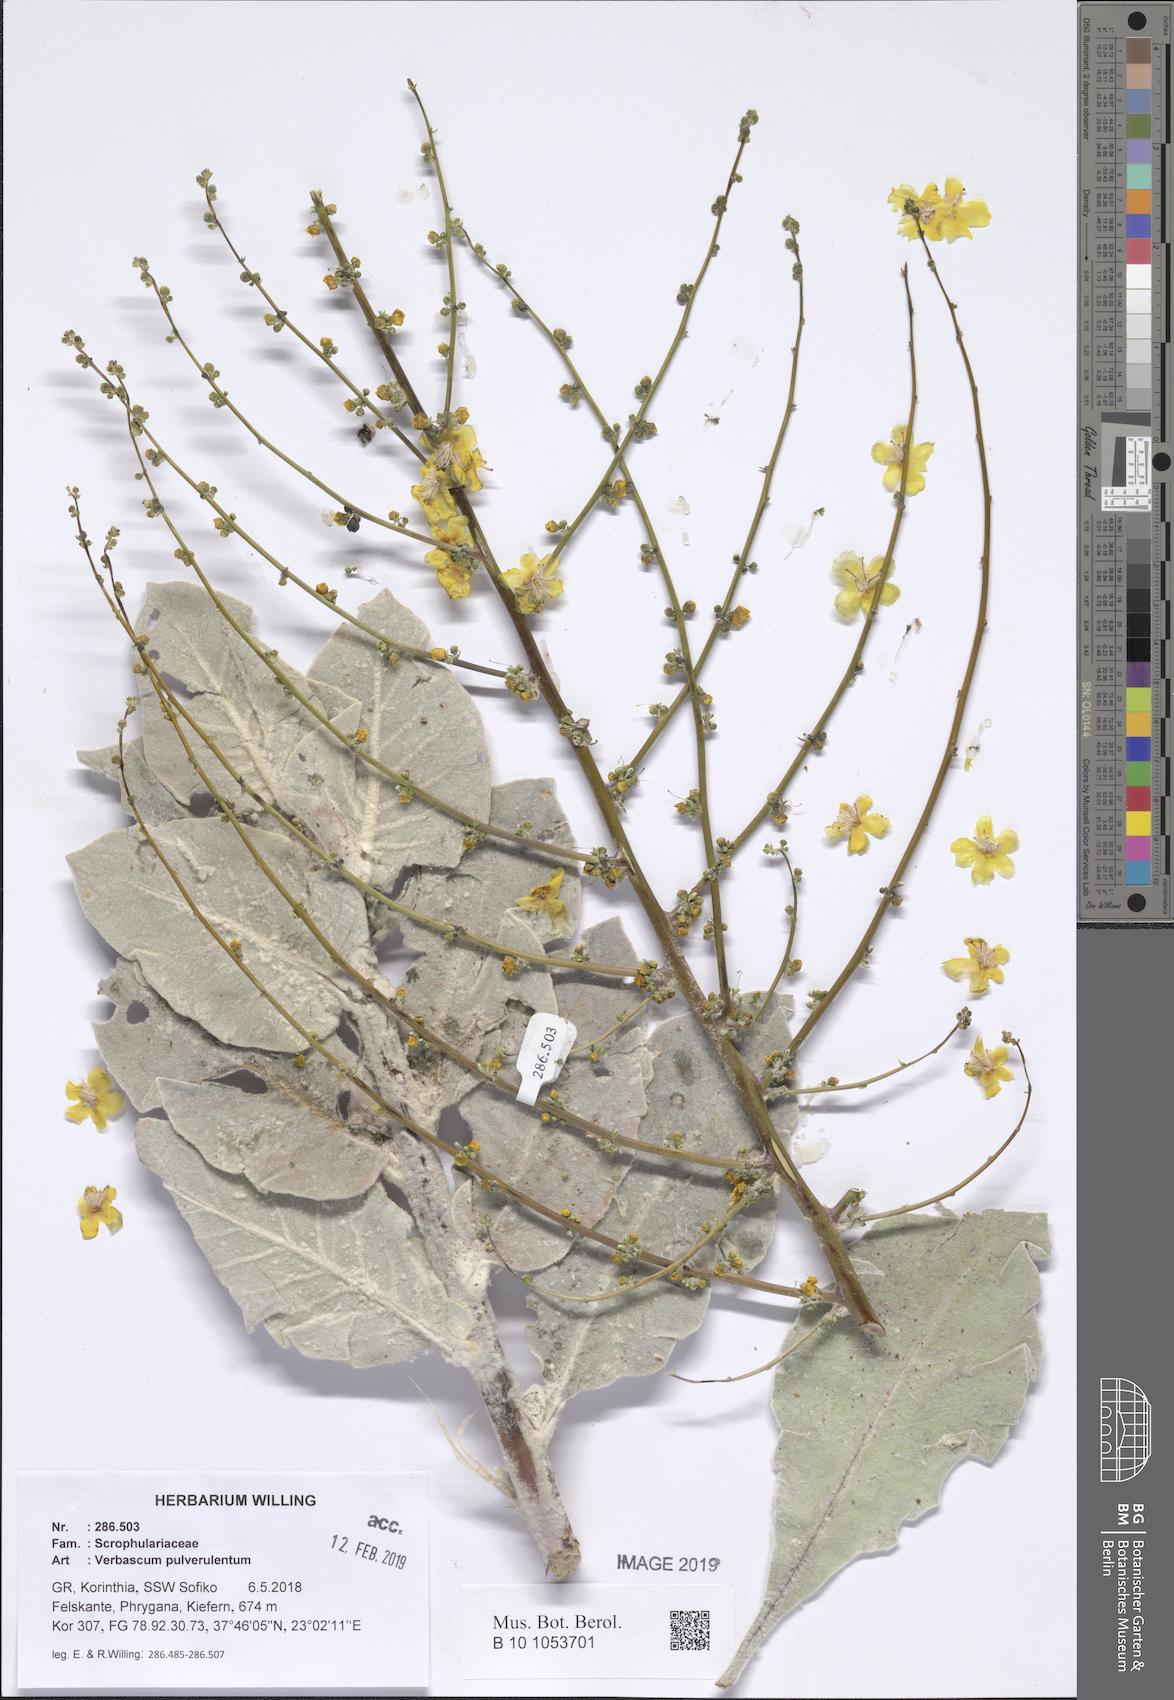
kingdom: Plantae
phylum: Tracheophyta
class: Magnoliopsida
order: Lamiales
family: Scrophulariaceae
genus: Verbascum
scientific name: Verbascum pulverulentum
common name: Broad-leaf mullein
